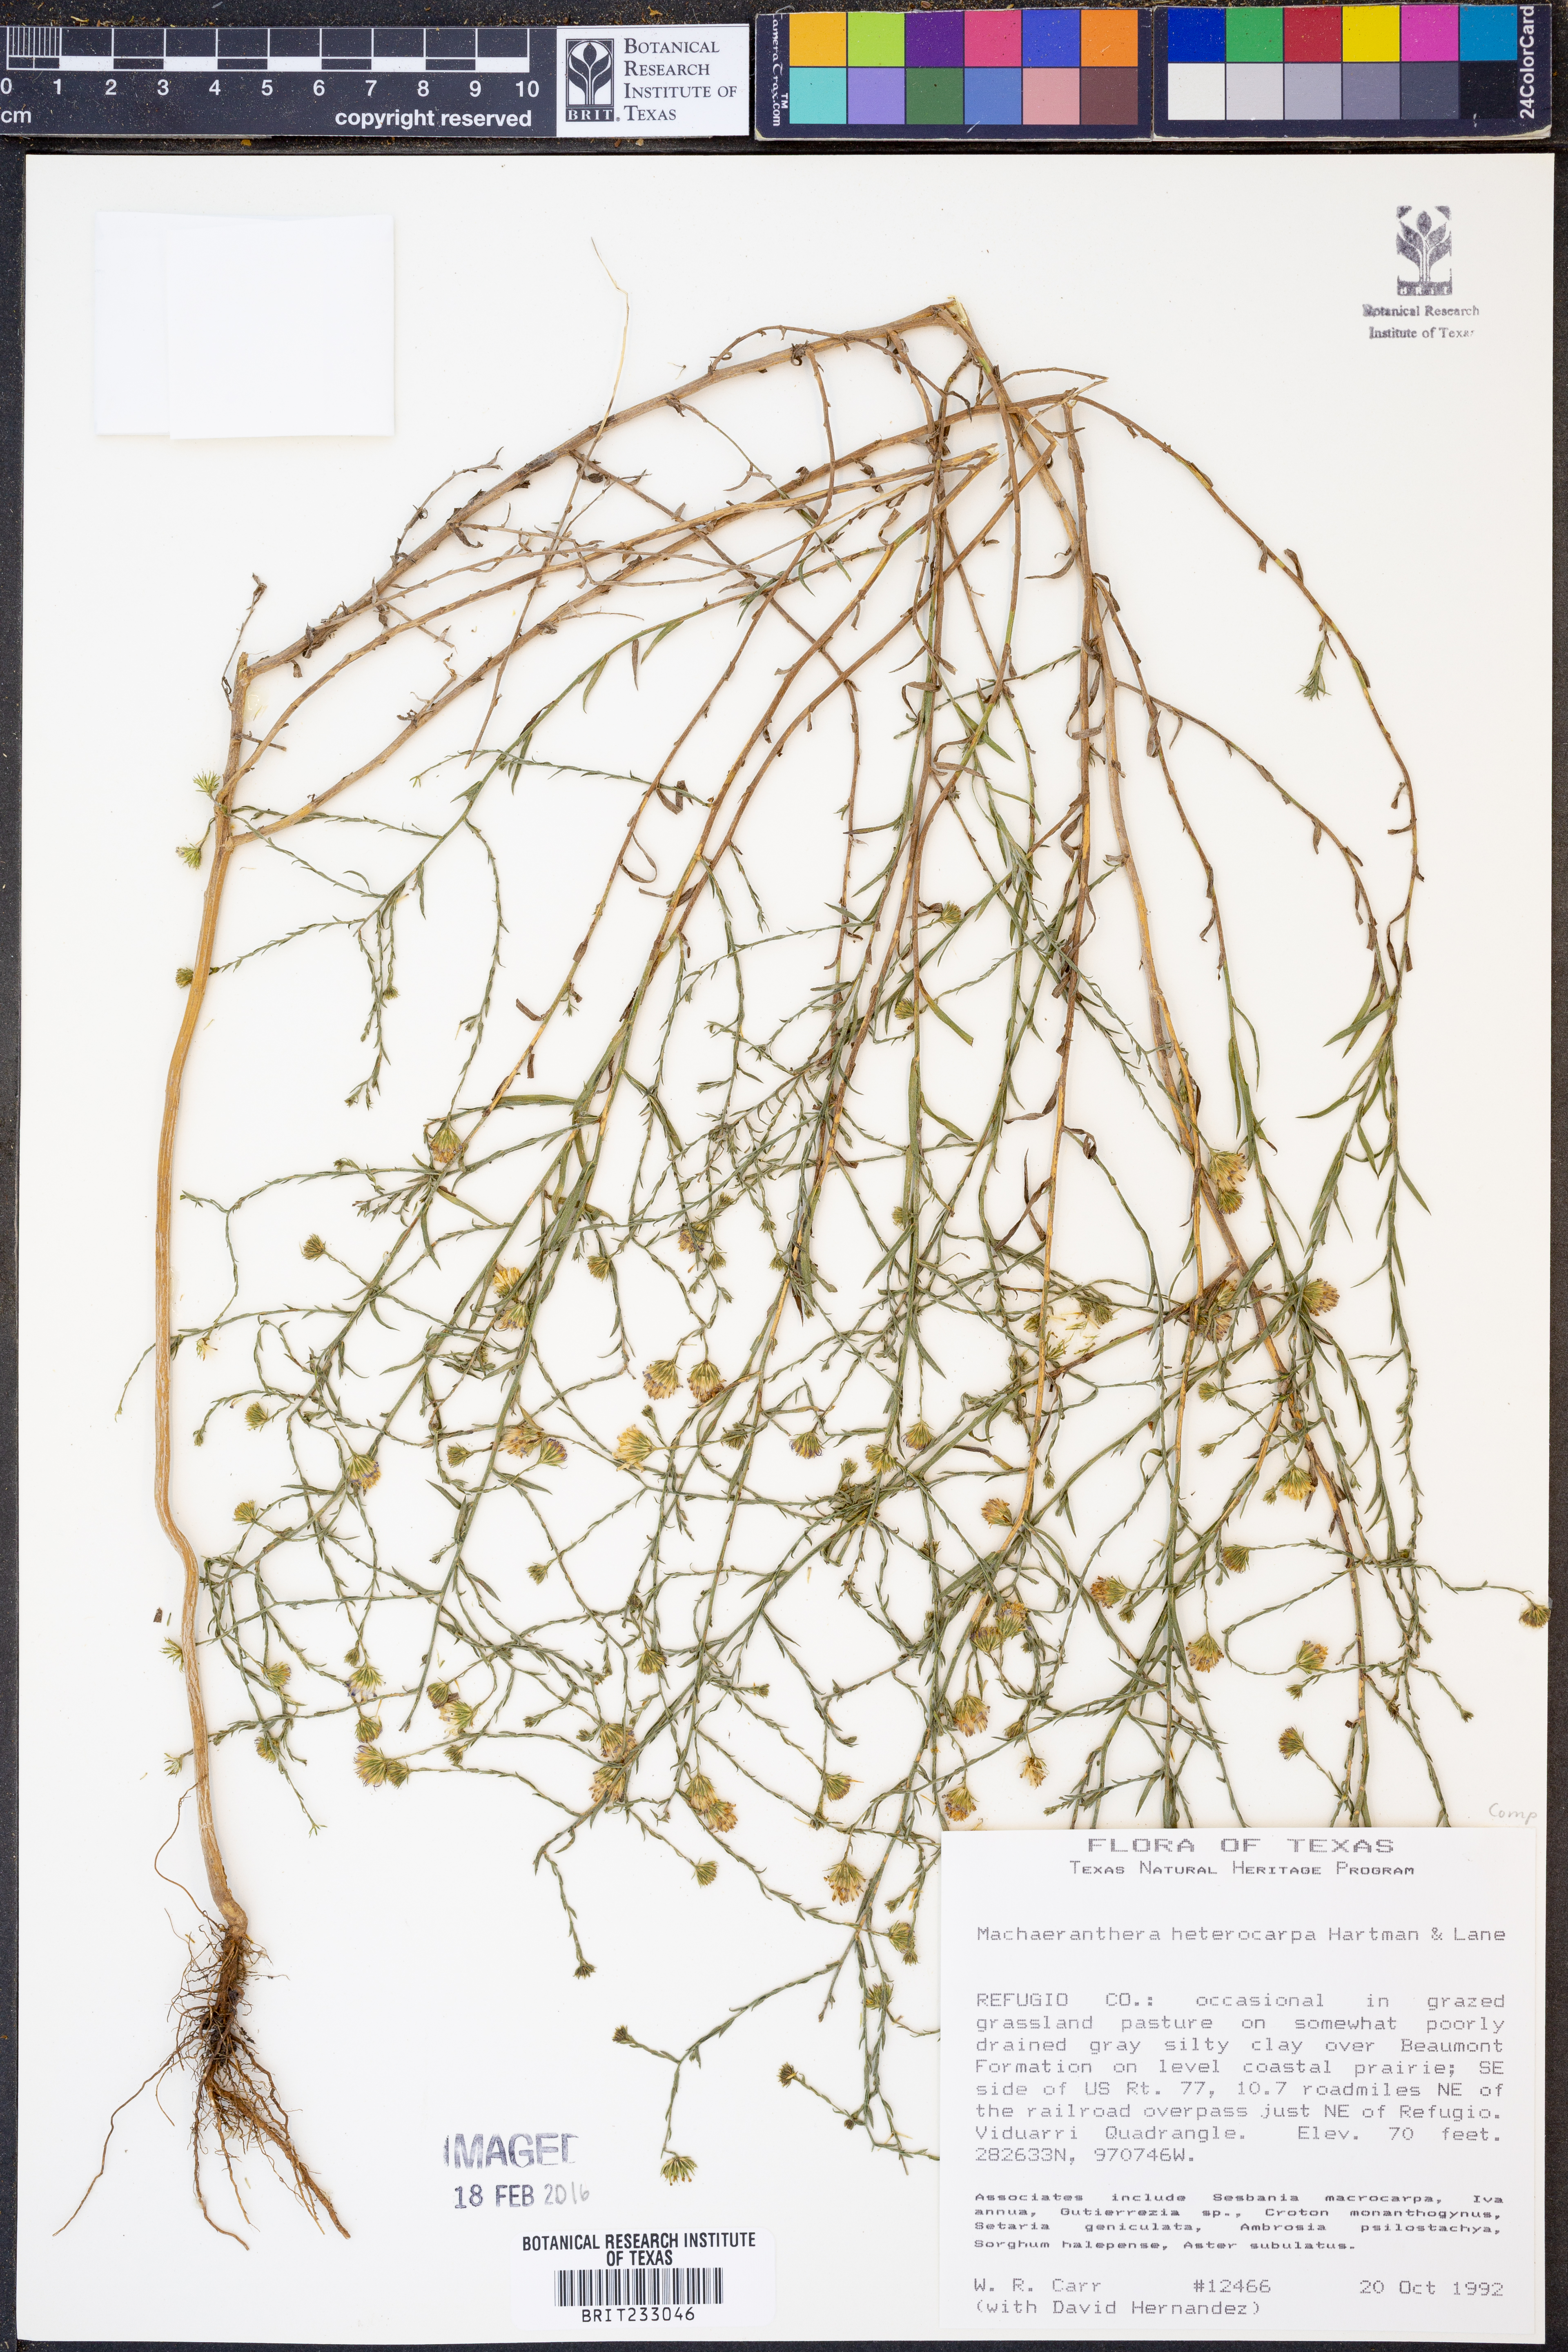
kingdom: Plantae
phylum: Tracheophyta
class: Magnoliopsida
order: Asterales
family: Asteraceae
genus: Psilactis
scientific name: Psilactis heterocarpa
